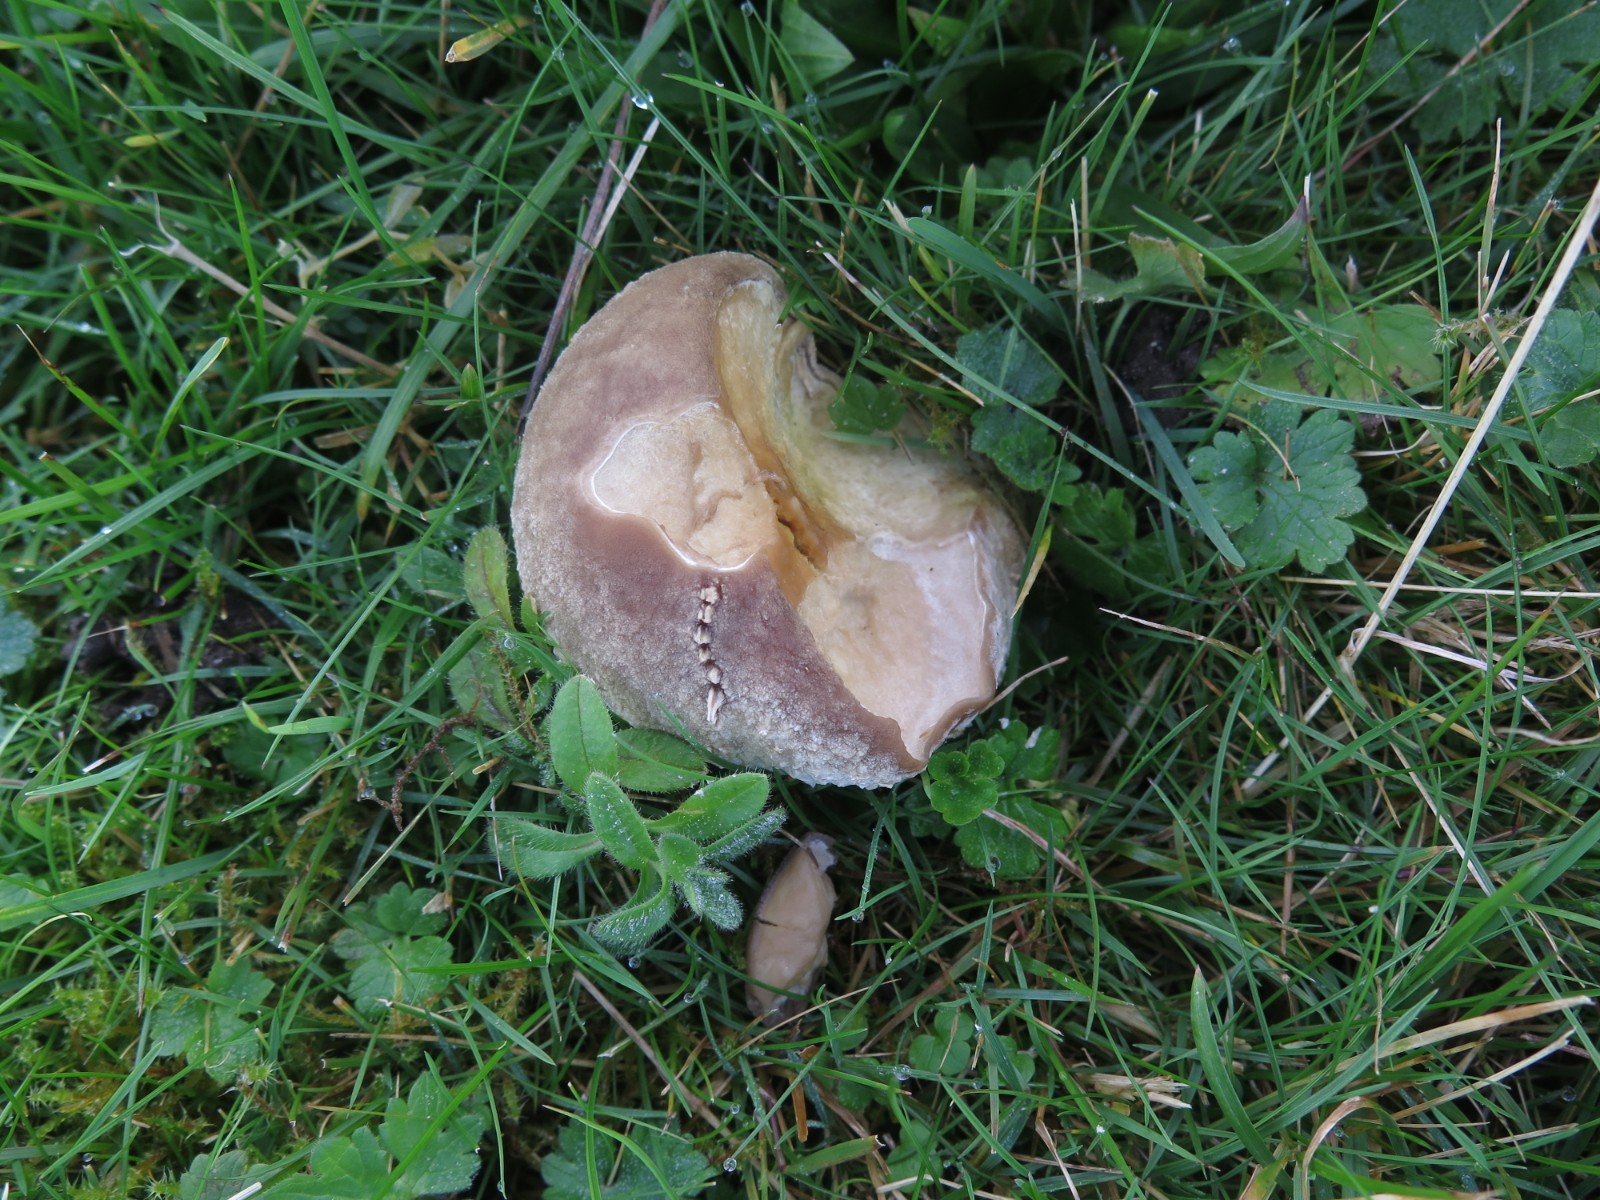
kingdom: Fungi
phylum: Basidiomycota
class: Agaricomycetes
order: Agaricales
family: Lycoperdaceae
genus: Bovistella
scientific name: Bovistella utriformis
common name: skællet støvbold
